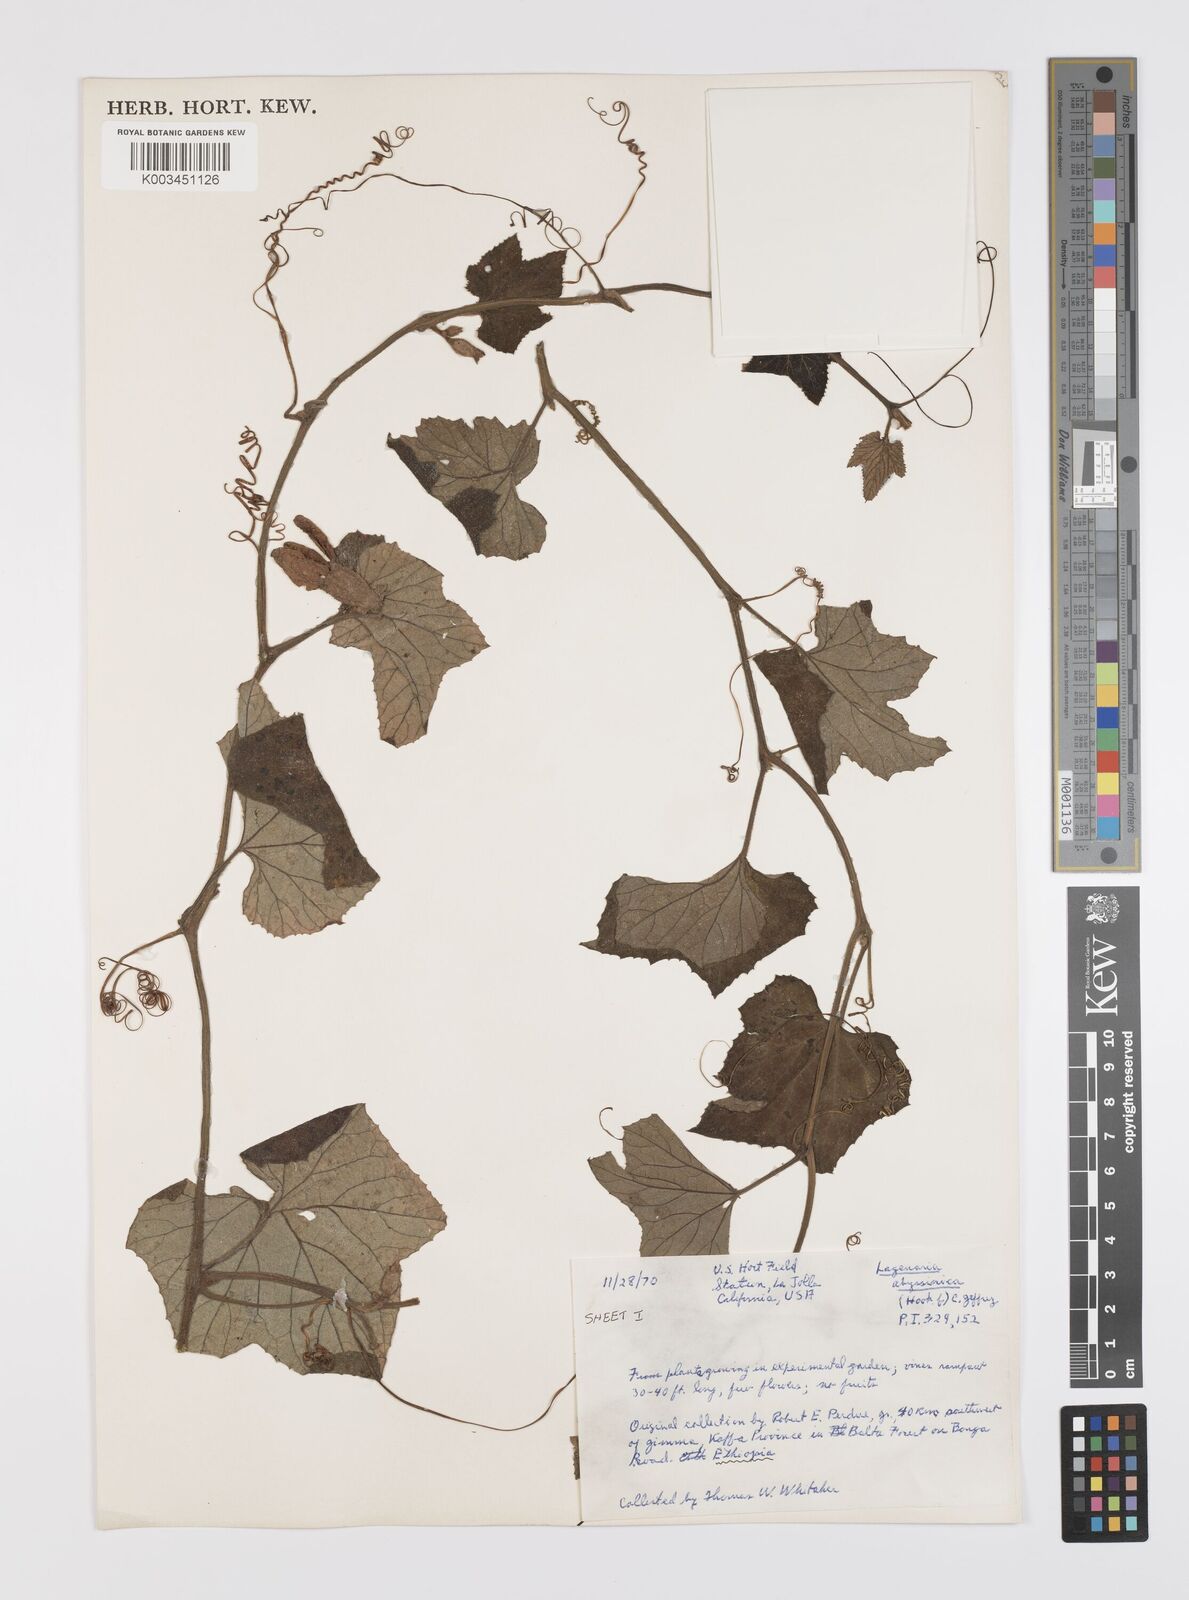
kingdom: Plantae
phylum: Tracheophyta
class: Magnoliopsida
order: Cucurbitales
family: Cucurbitaceae
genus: Lagenaria
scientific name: Lagenaria abyssinica
